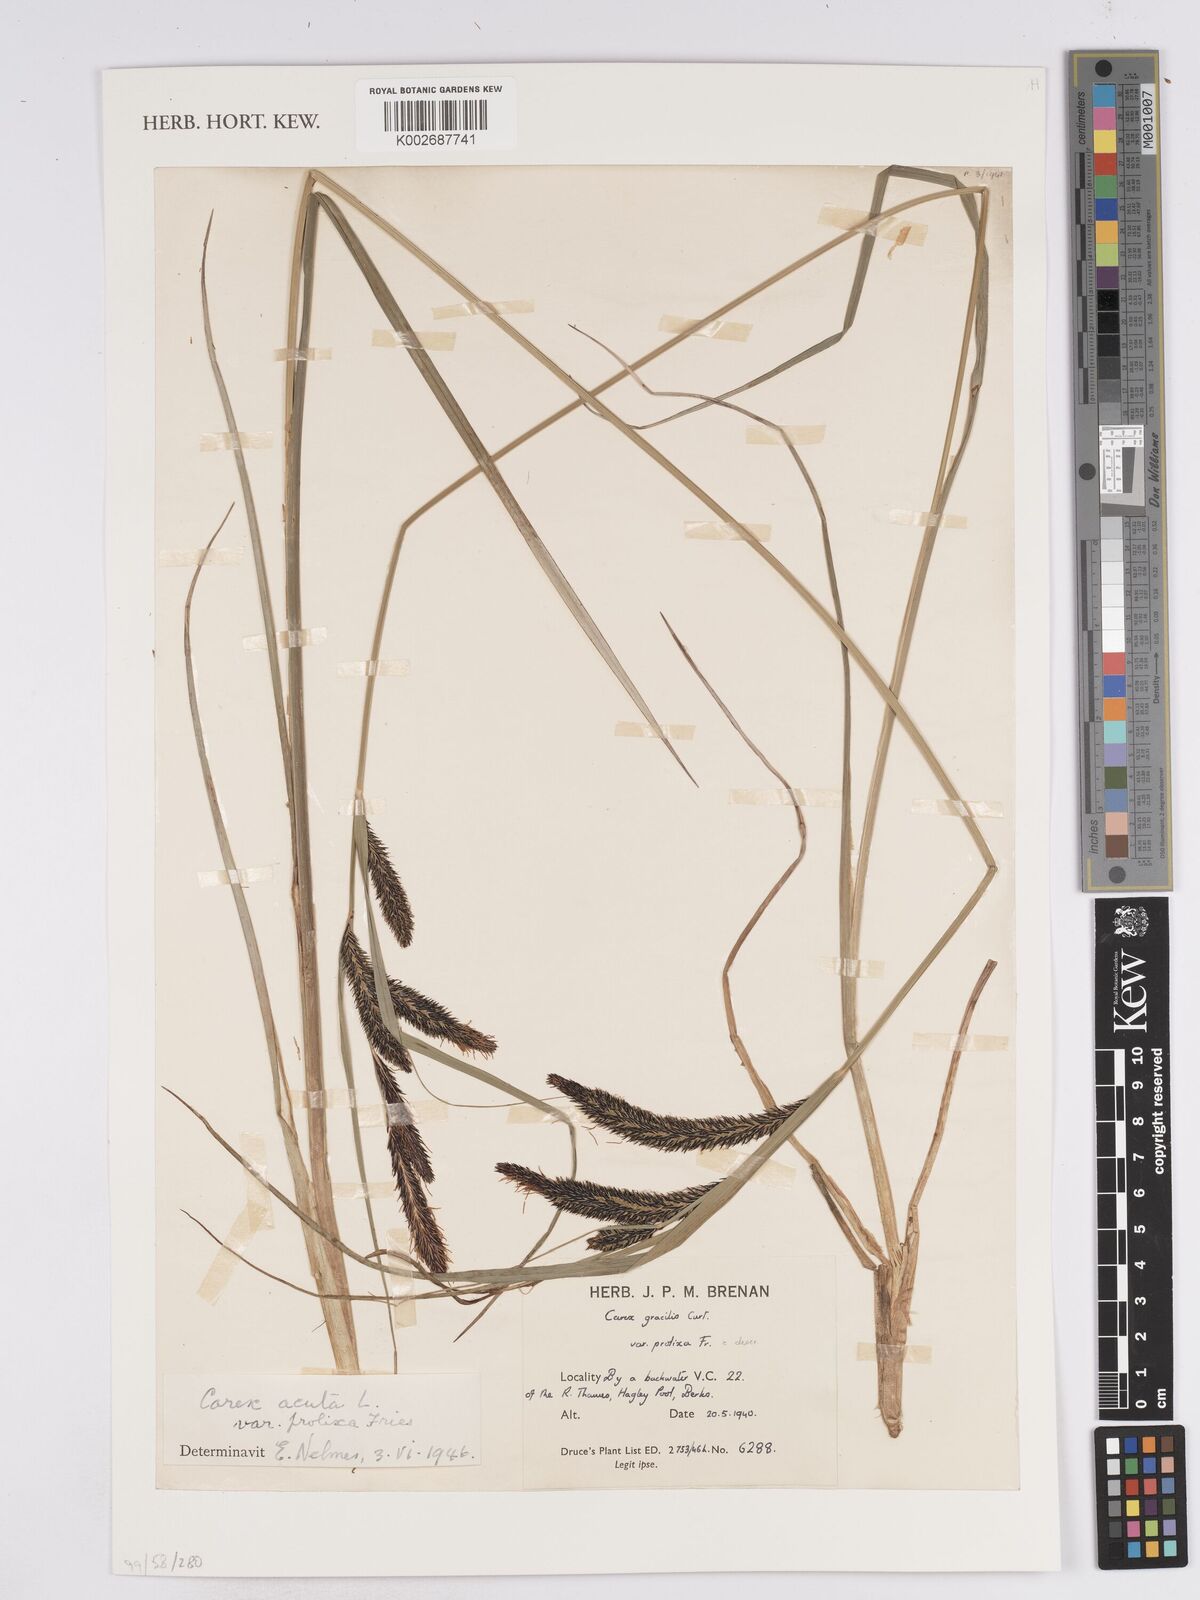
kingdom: Plantae
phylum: Tracheophyta
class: Liliopsida
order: Poales
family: Cyperaceae
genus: Carex
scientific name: Carex
